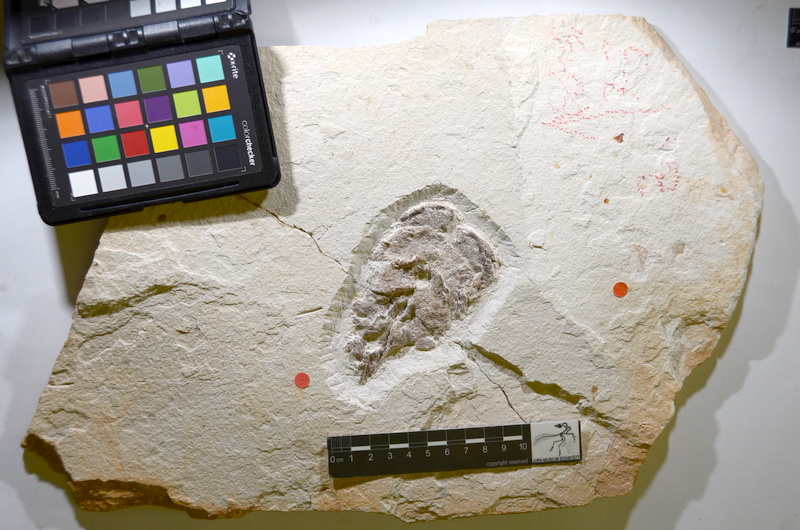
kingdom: Animalia
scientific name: Animalia
